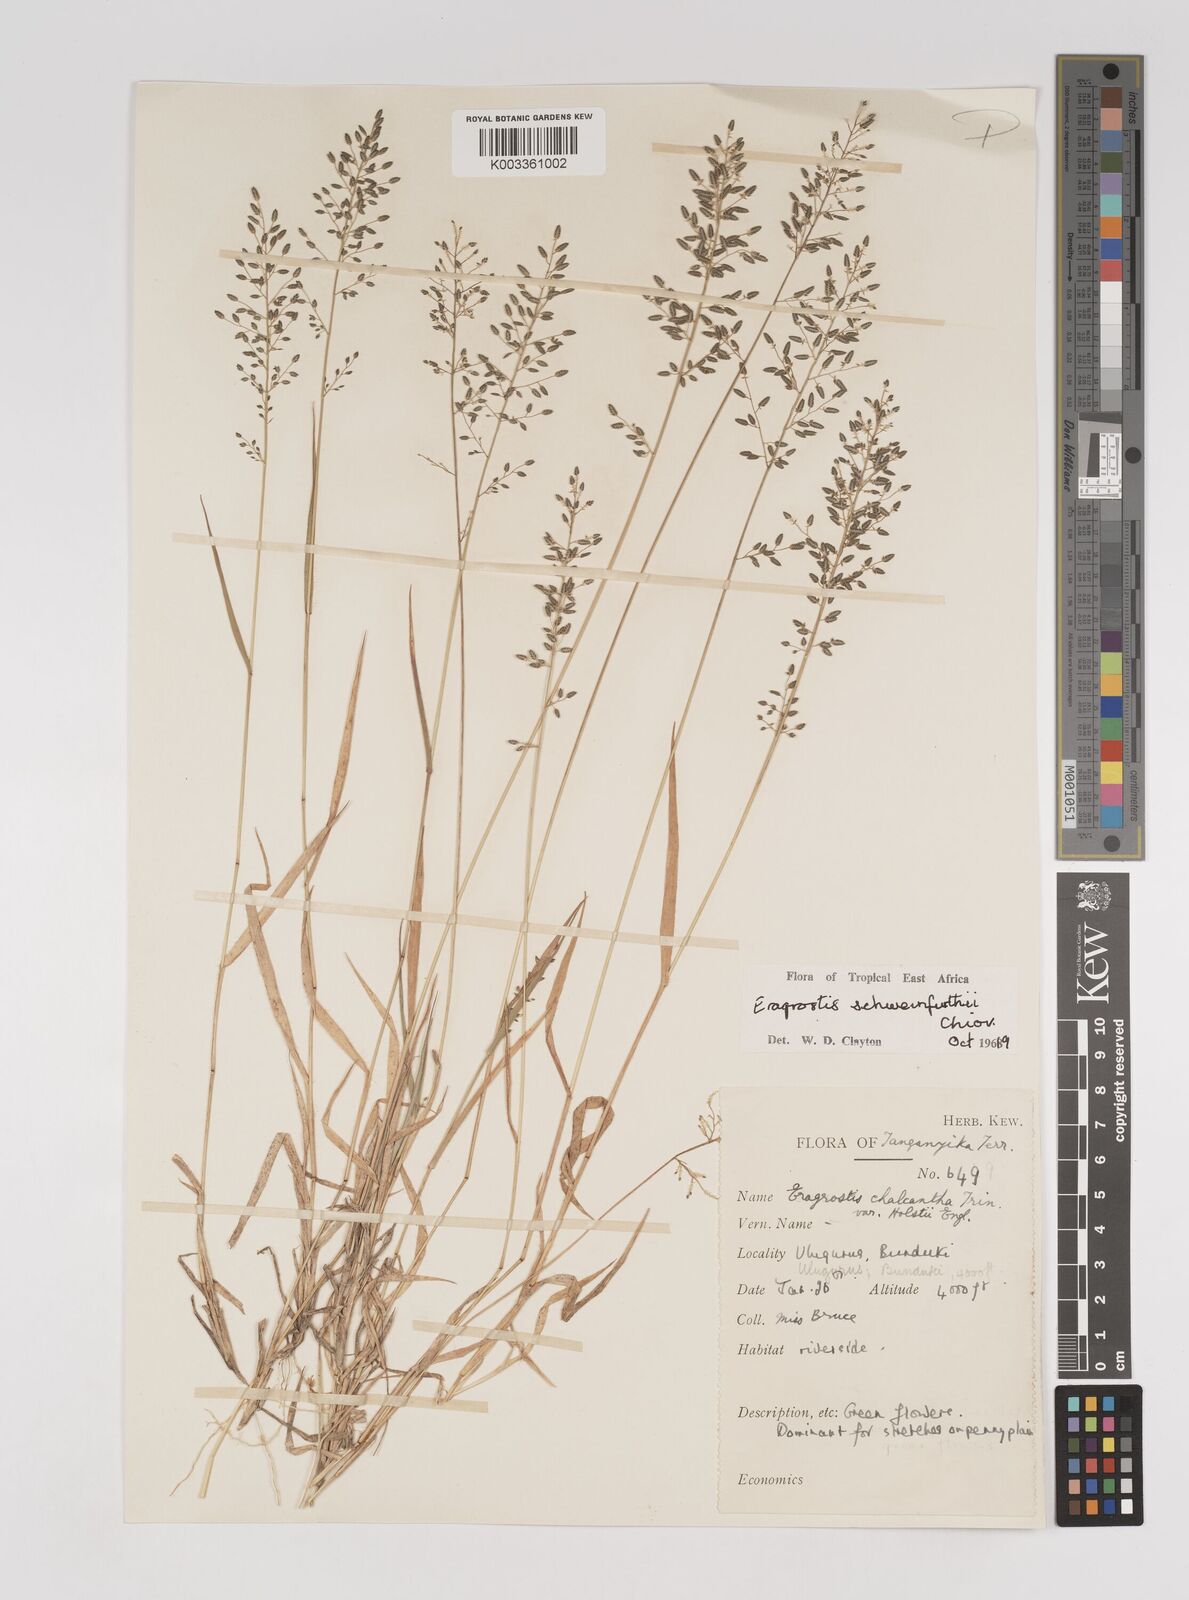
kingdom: Plantae
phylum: Tracheophyta
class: Liliopsida
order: Poales
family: Poaceae
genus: Eragrostis
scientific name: Eragrostis schweinfurthii
